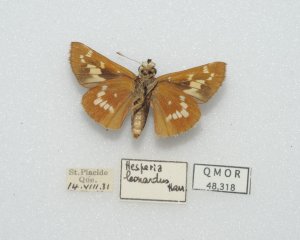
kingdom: Animalia
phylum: Arthropoda
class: Insecta
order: Lepidoptera
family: Hesperiidae
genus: Hesperia
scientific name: Hesperia leonardus
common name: Leonard's Skipper
